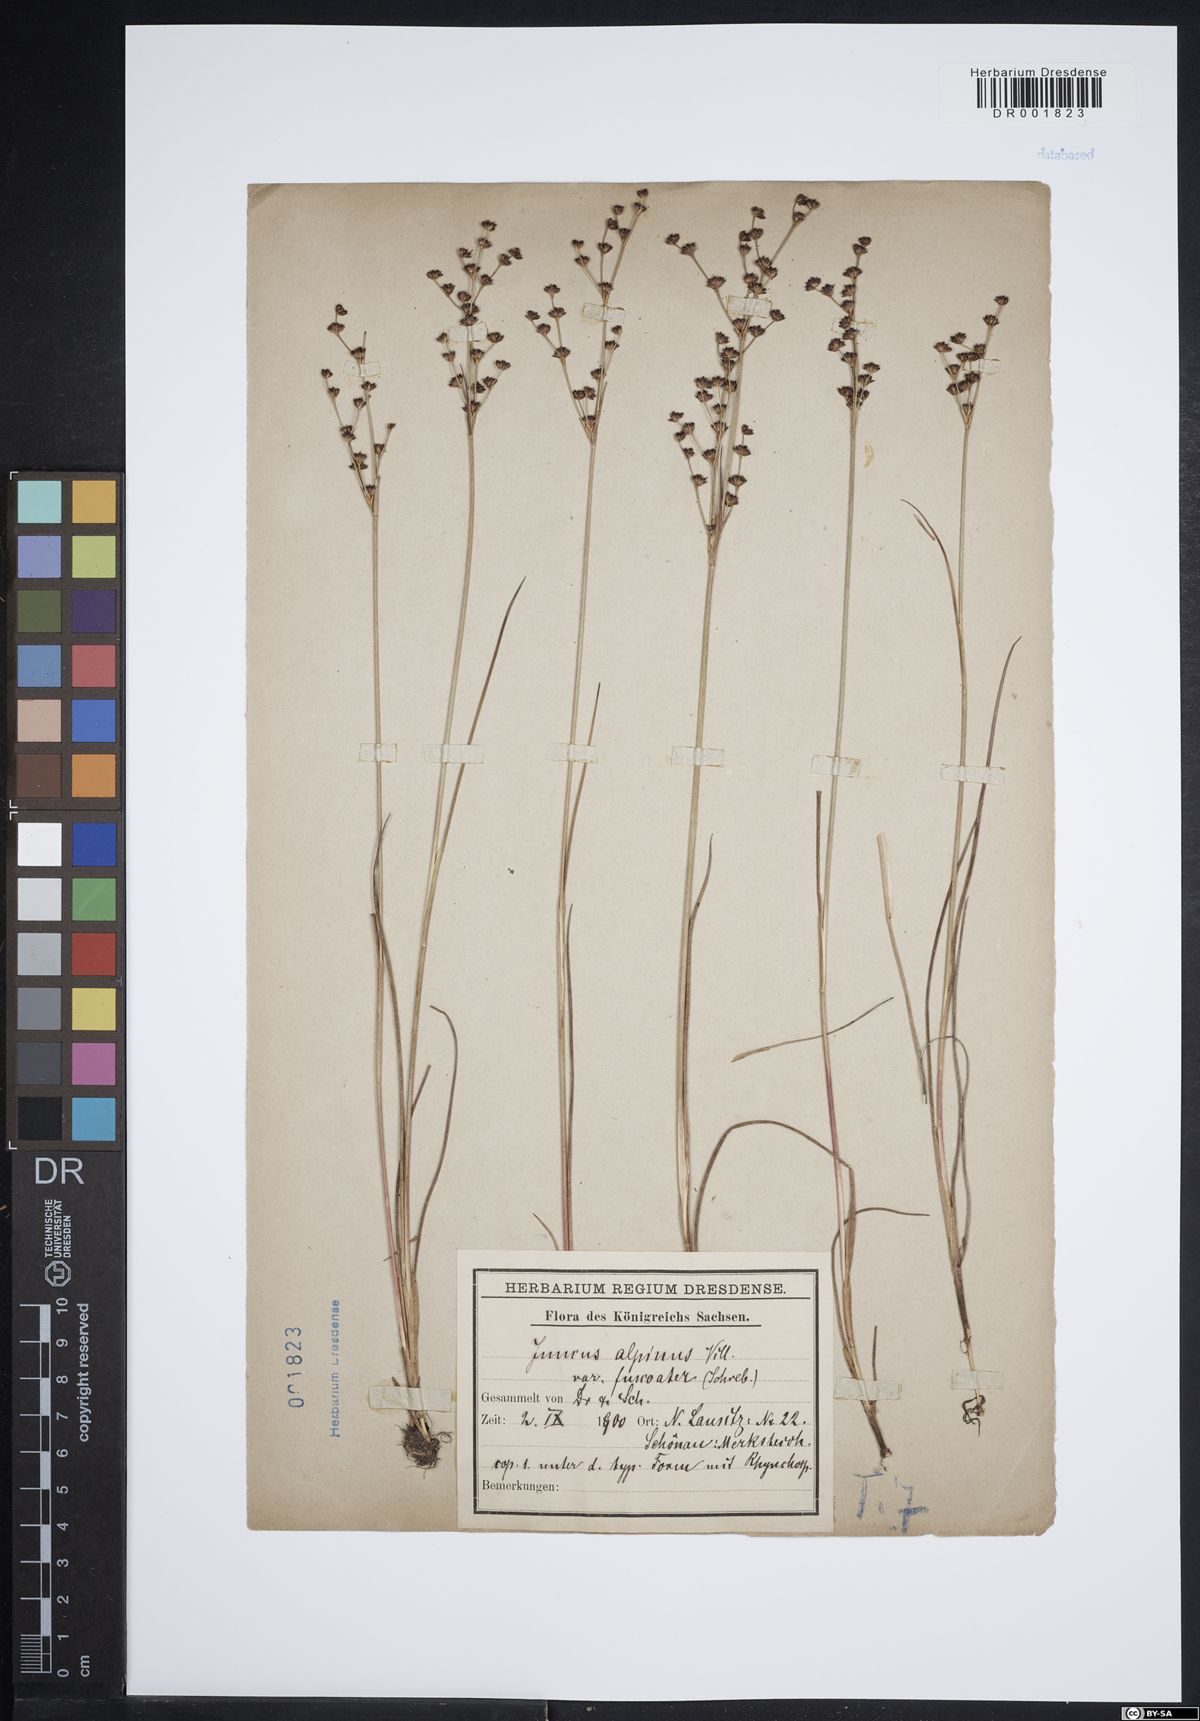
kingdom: Plantae
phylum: Tracheophyta
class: Liliopsida
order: Poales
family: Juncaceae
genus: Juncus
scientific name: Juncus alpinoarticulatus
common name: Alpine rush
